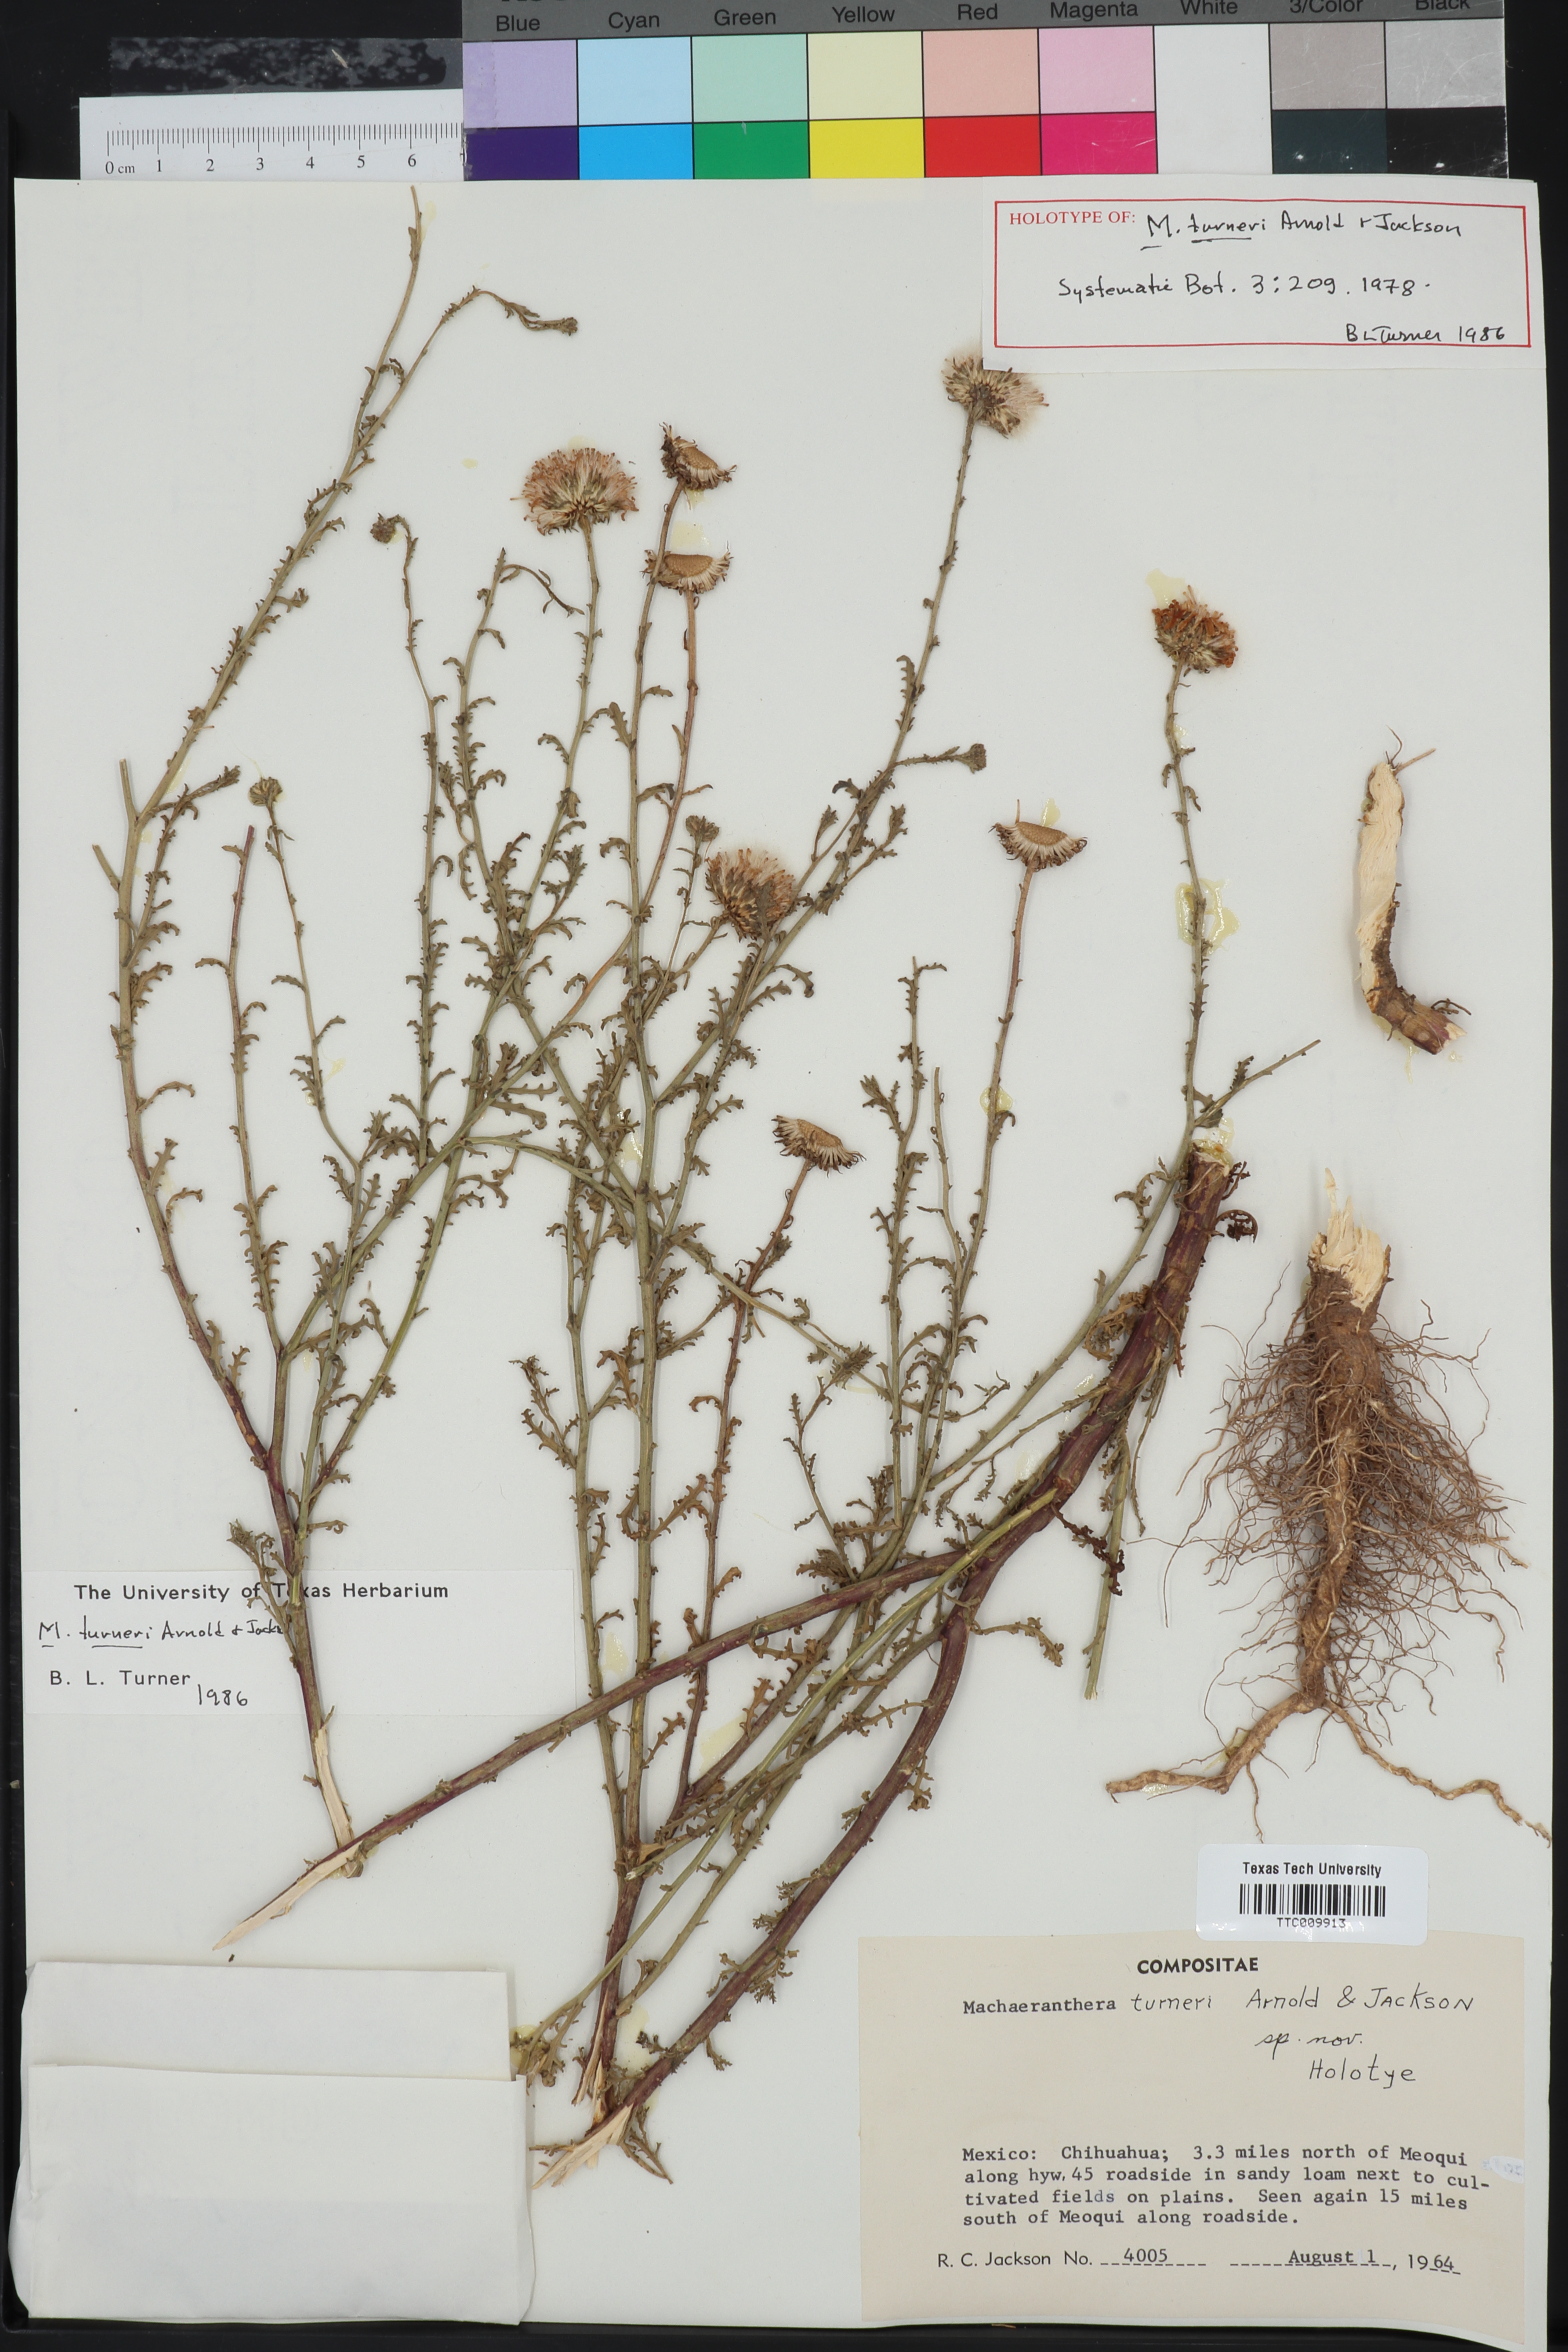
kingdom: Plantae
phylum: Tracheophyta
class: Magnoliopsida
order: Asterales
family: Asteraceae
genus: Leucosyris
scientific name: Leucosyris turneri
